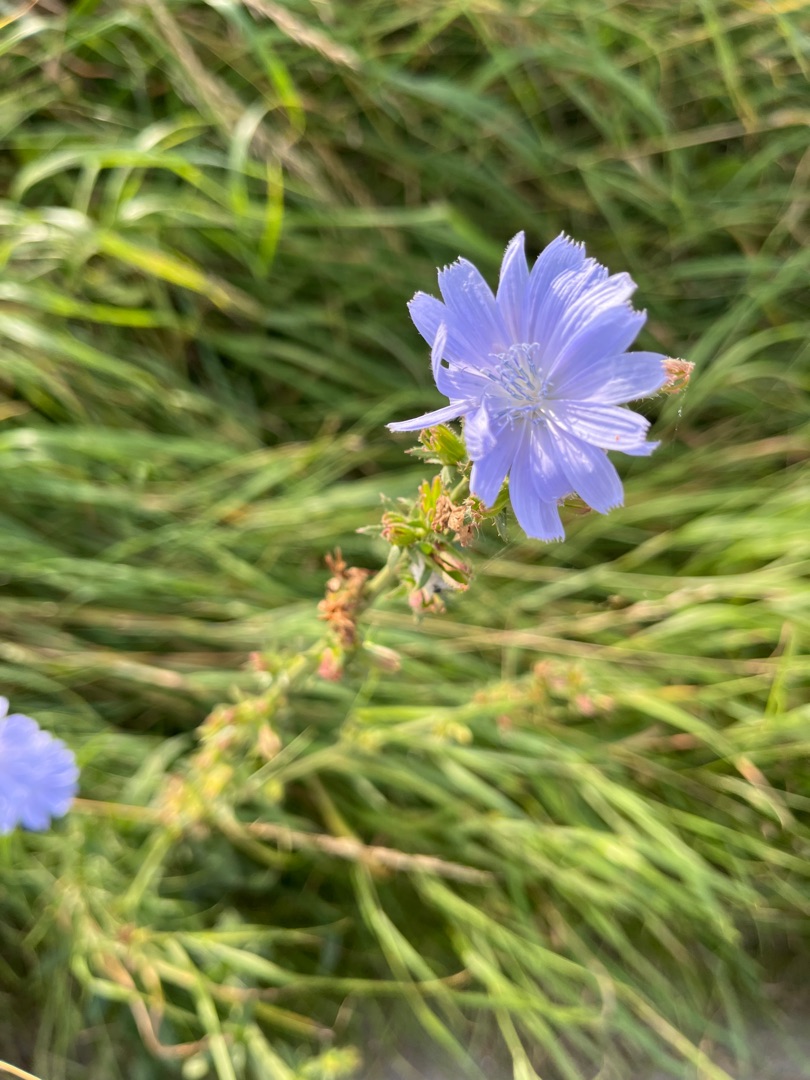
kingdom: Plantae
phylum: Tracheophyta
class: Magnoliopsida
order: Asterales
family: Asteraceae
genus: Cichorium
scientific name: Cichorium intybus
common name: Cikorie
